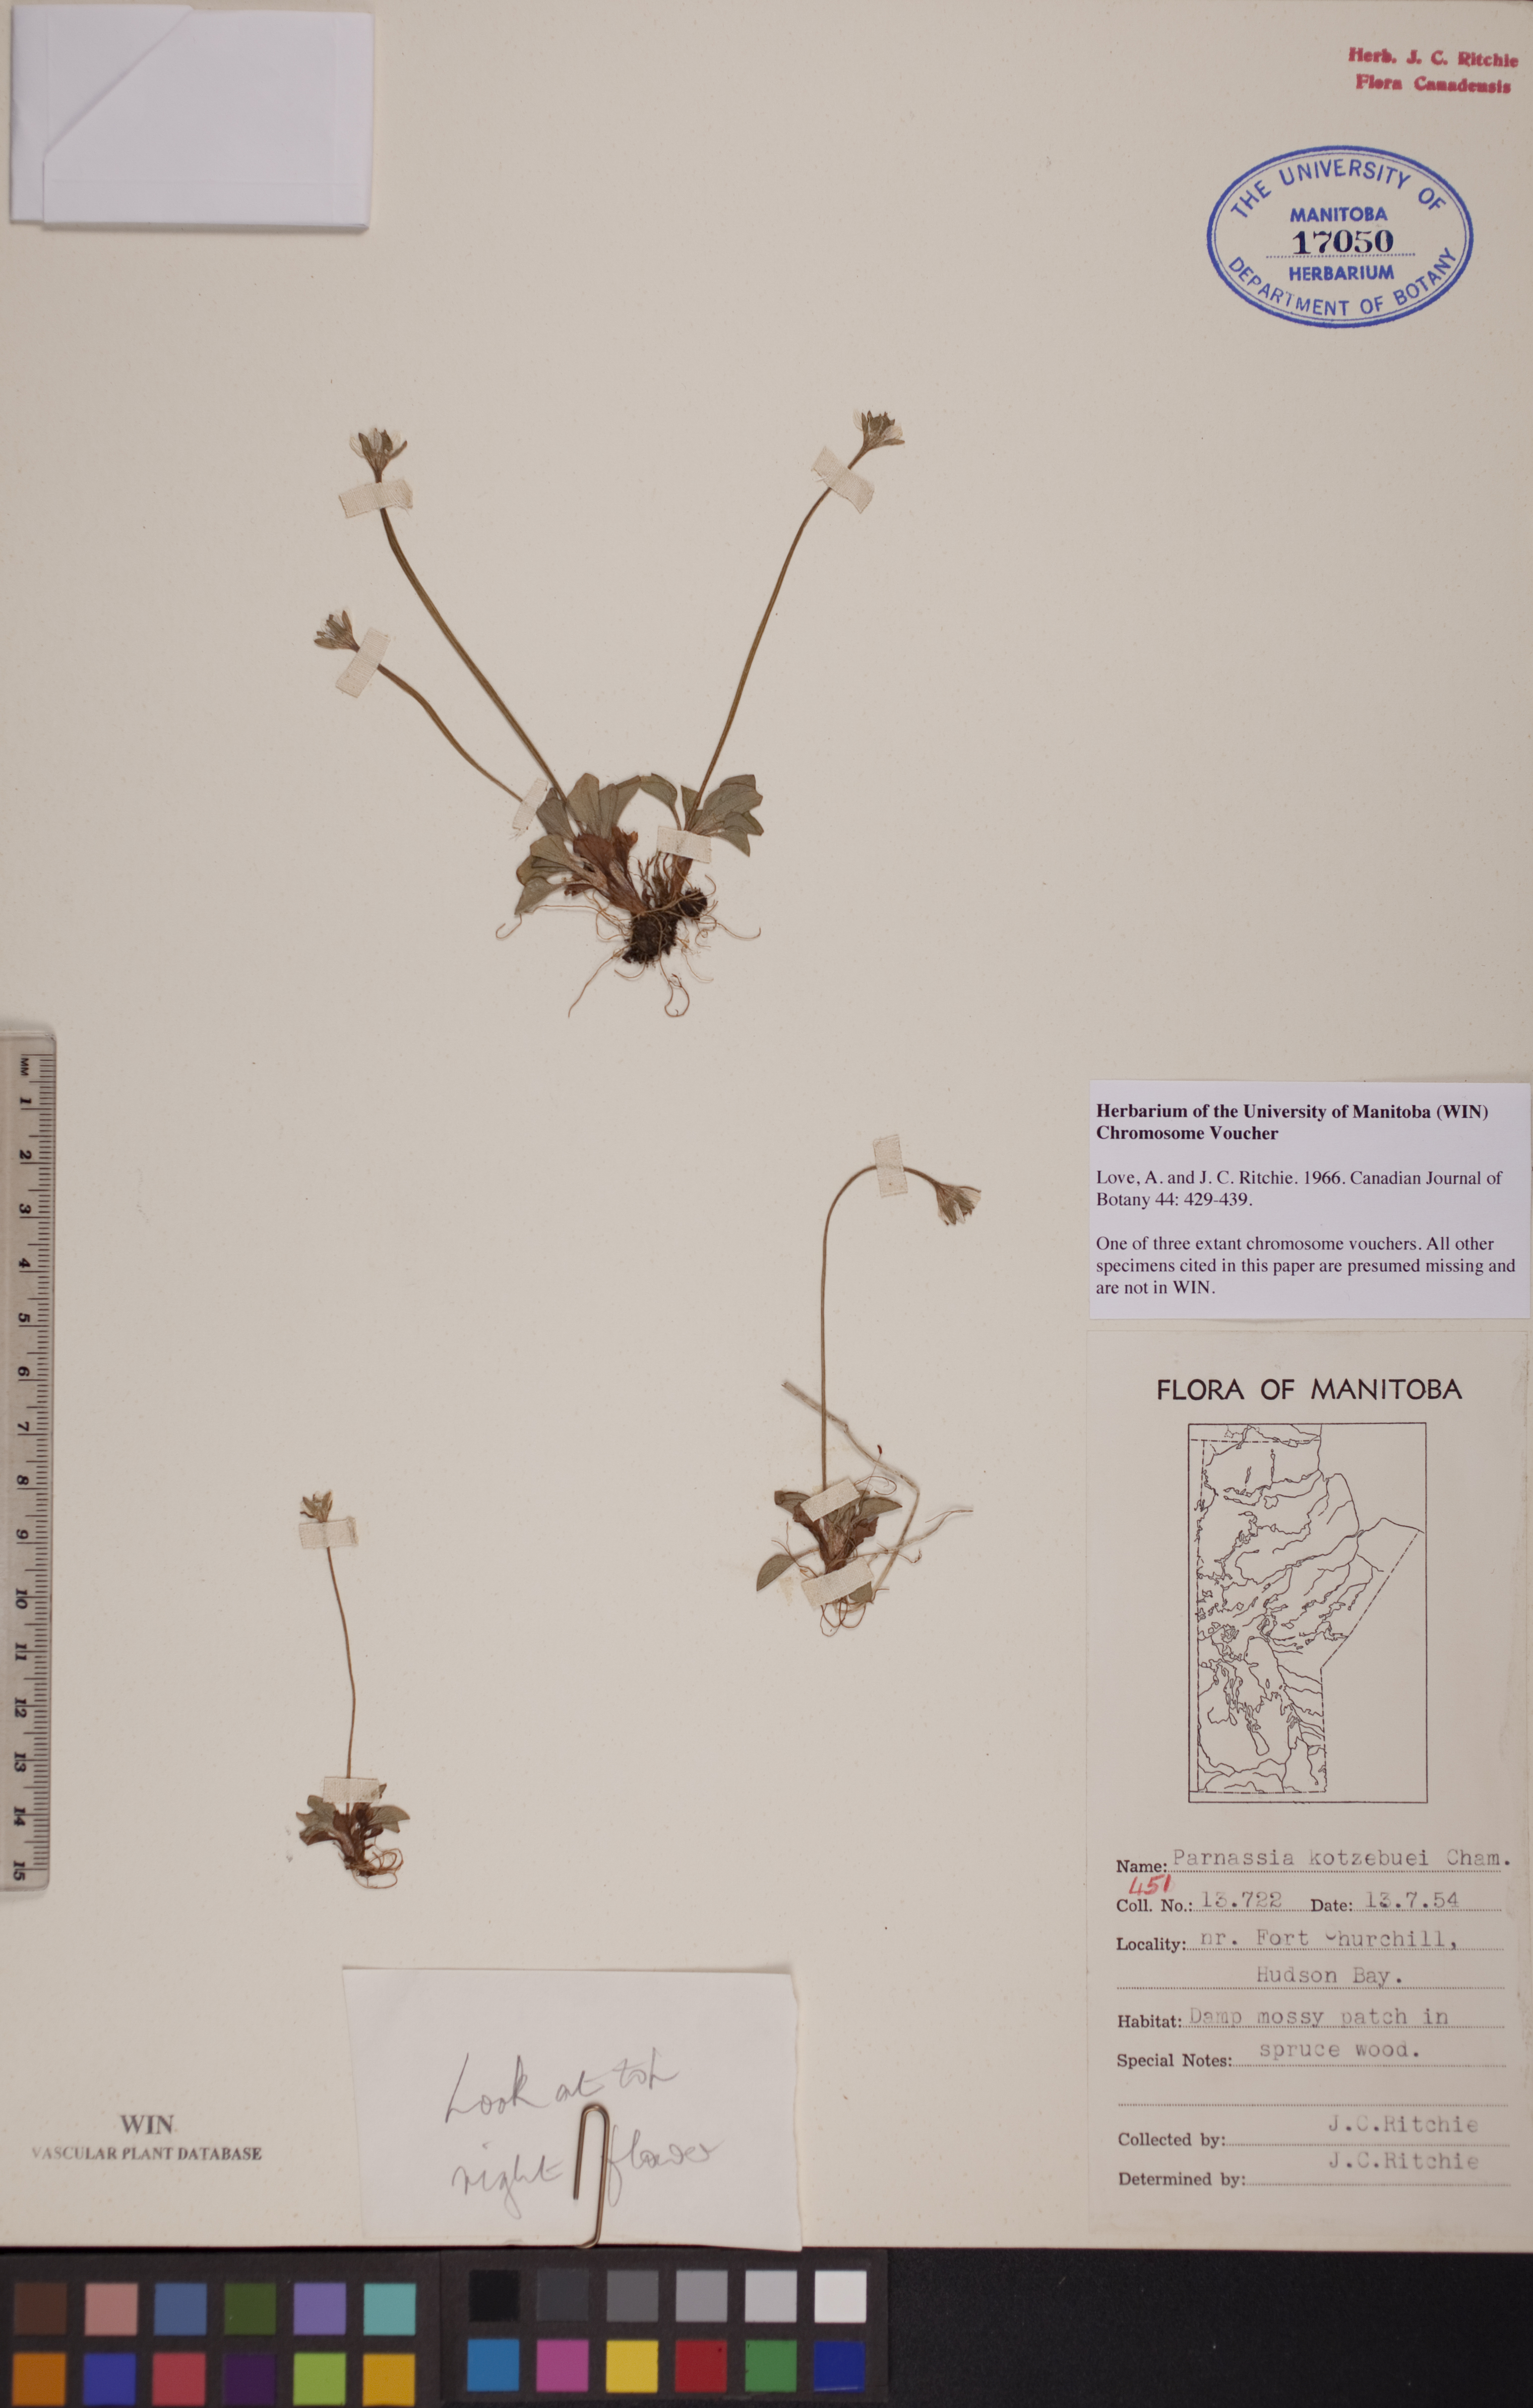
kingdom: Plantae
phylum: Tracheophyta
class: Magnoliopsida
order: Celastrales
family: Parnassiaceae
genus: Parnassia
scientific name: Parnassia kotzebuei
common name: Kotzebue's grass-of-parnassus
